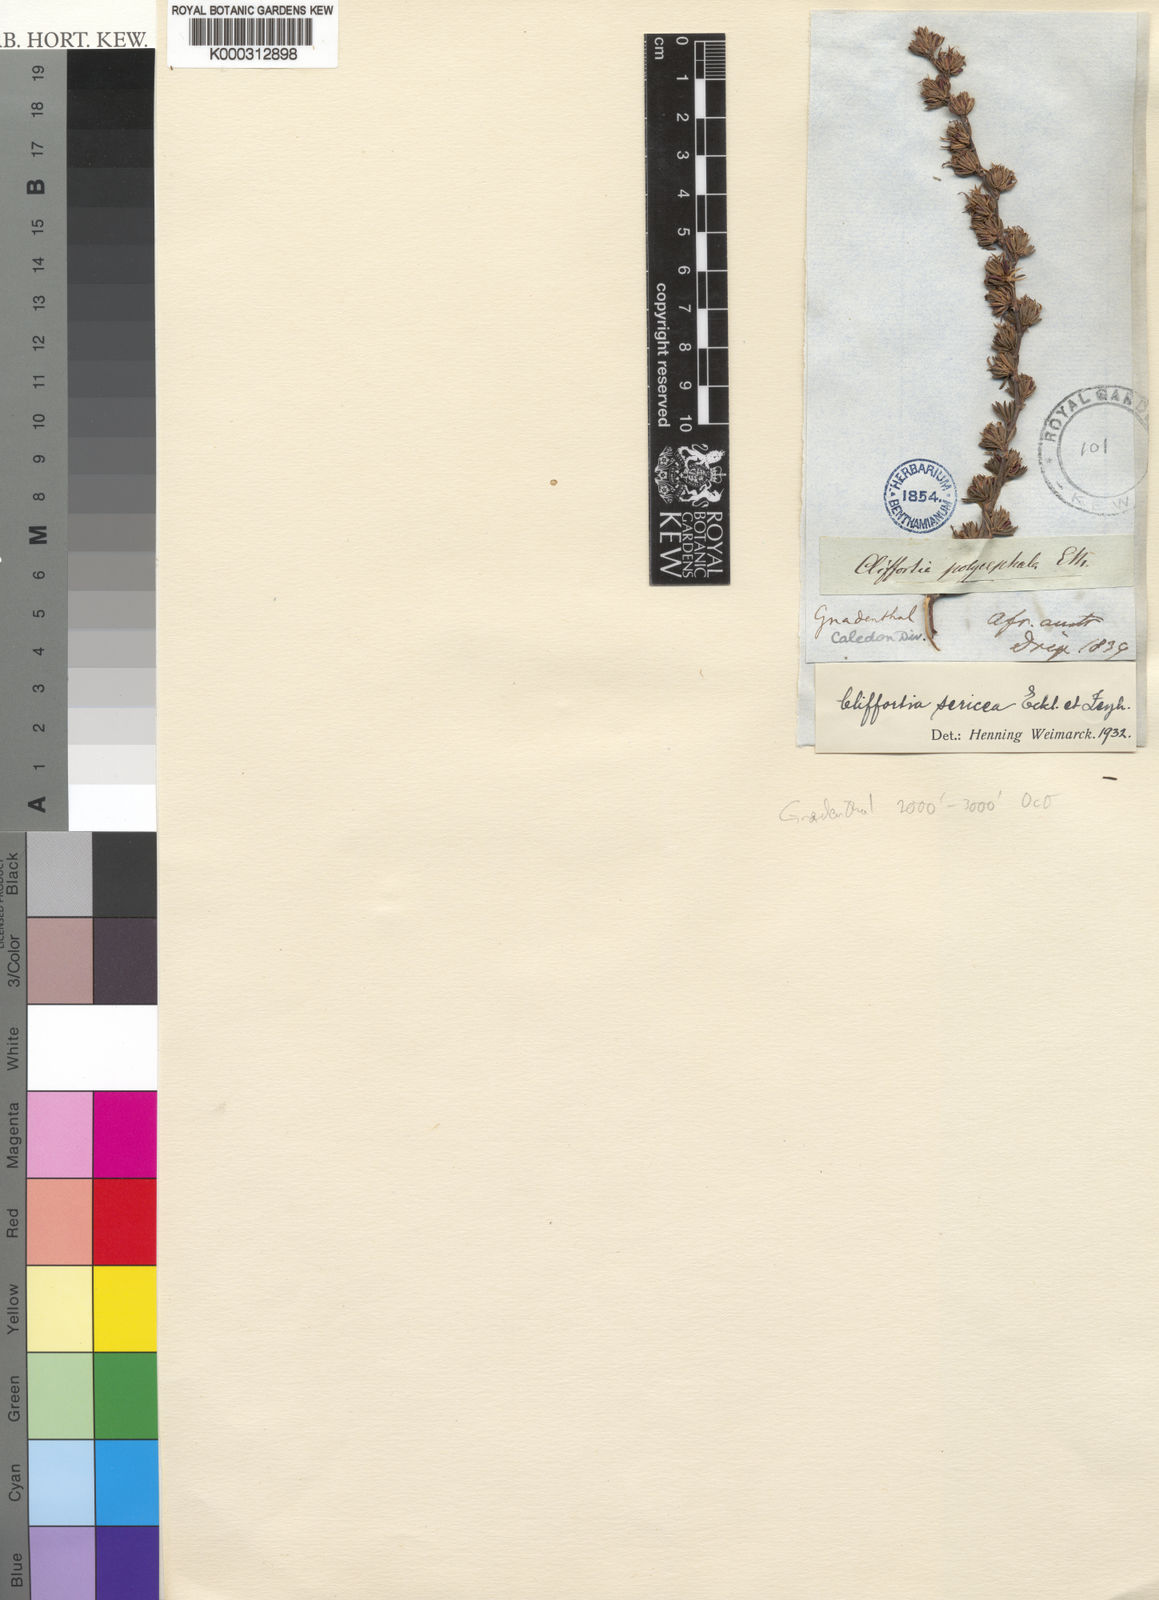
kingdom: Plantae
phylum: Tracheophyta
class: Magnoliopsida
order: Rosales
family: Rosaceae
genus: Cliffortia
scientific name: Cliffortia sericea
